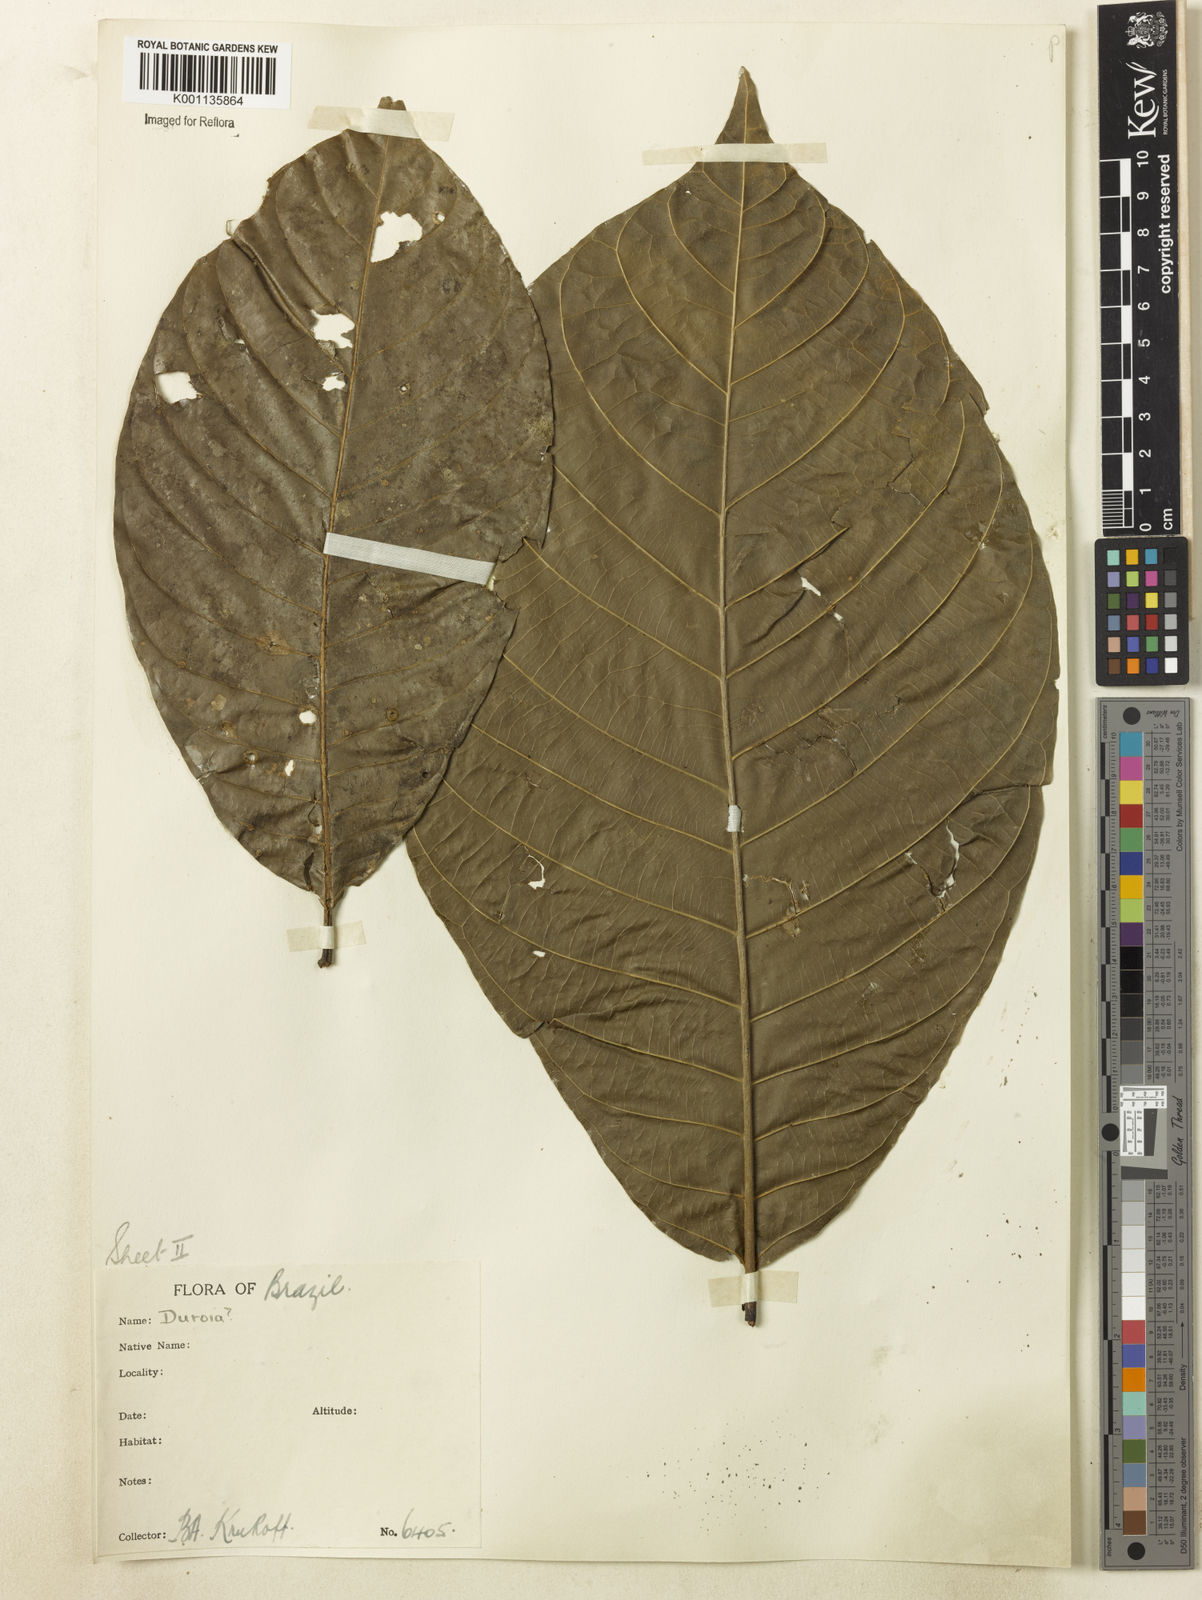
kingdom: Plantae
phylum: Tracheophyta
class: Magnoliopsida
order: Gentianales
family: Rubiaceae
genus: Duroia
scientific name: Duroia
